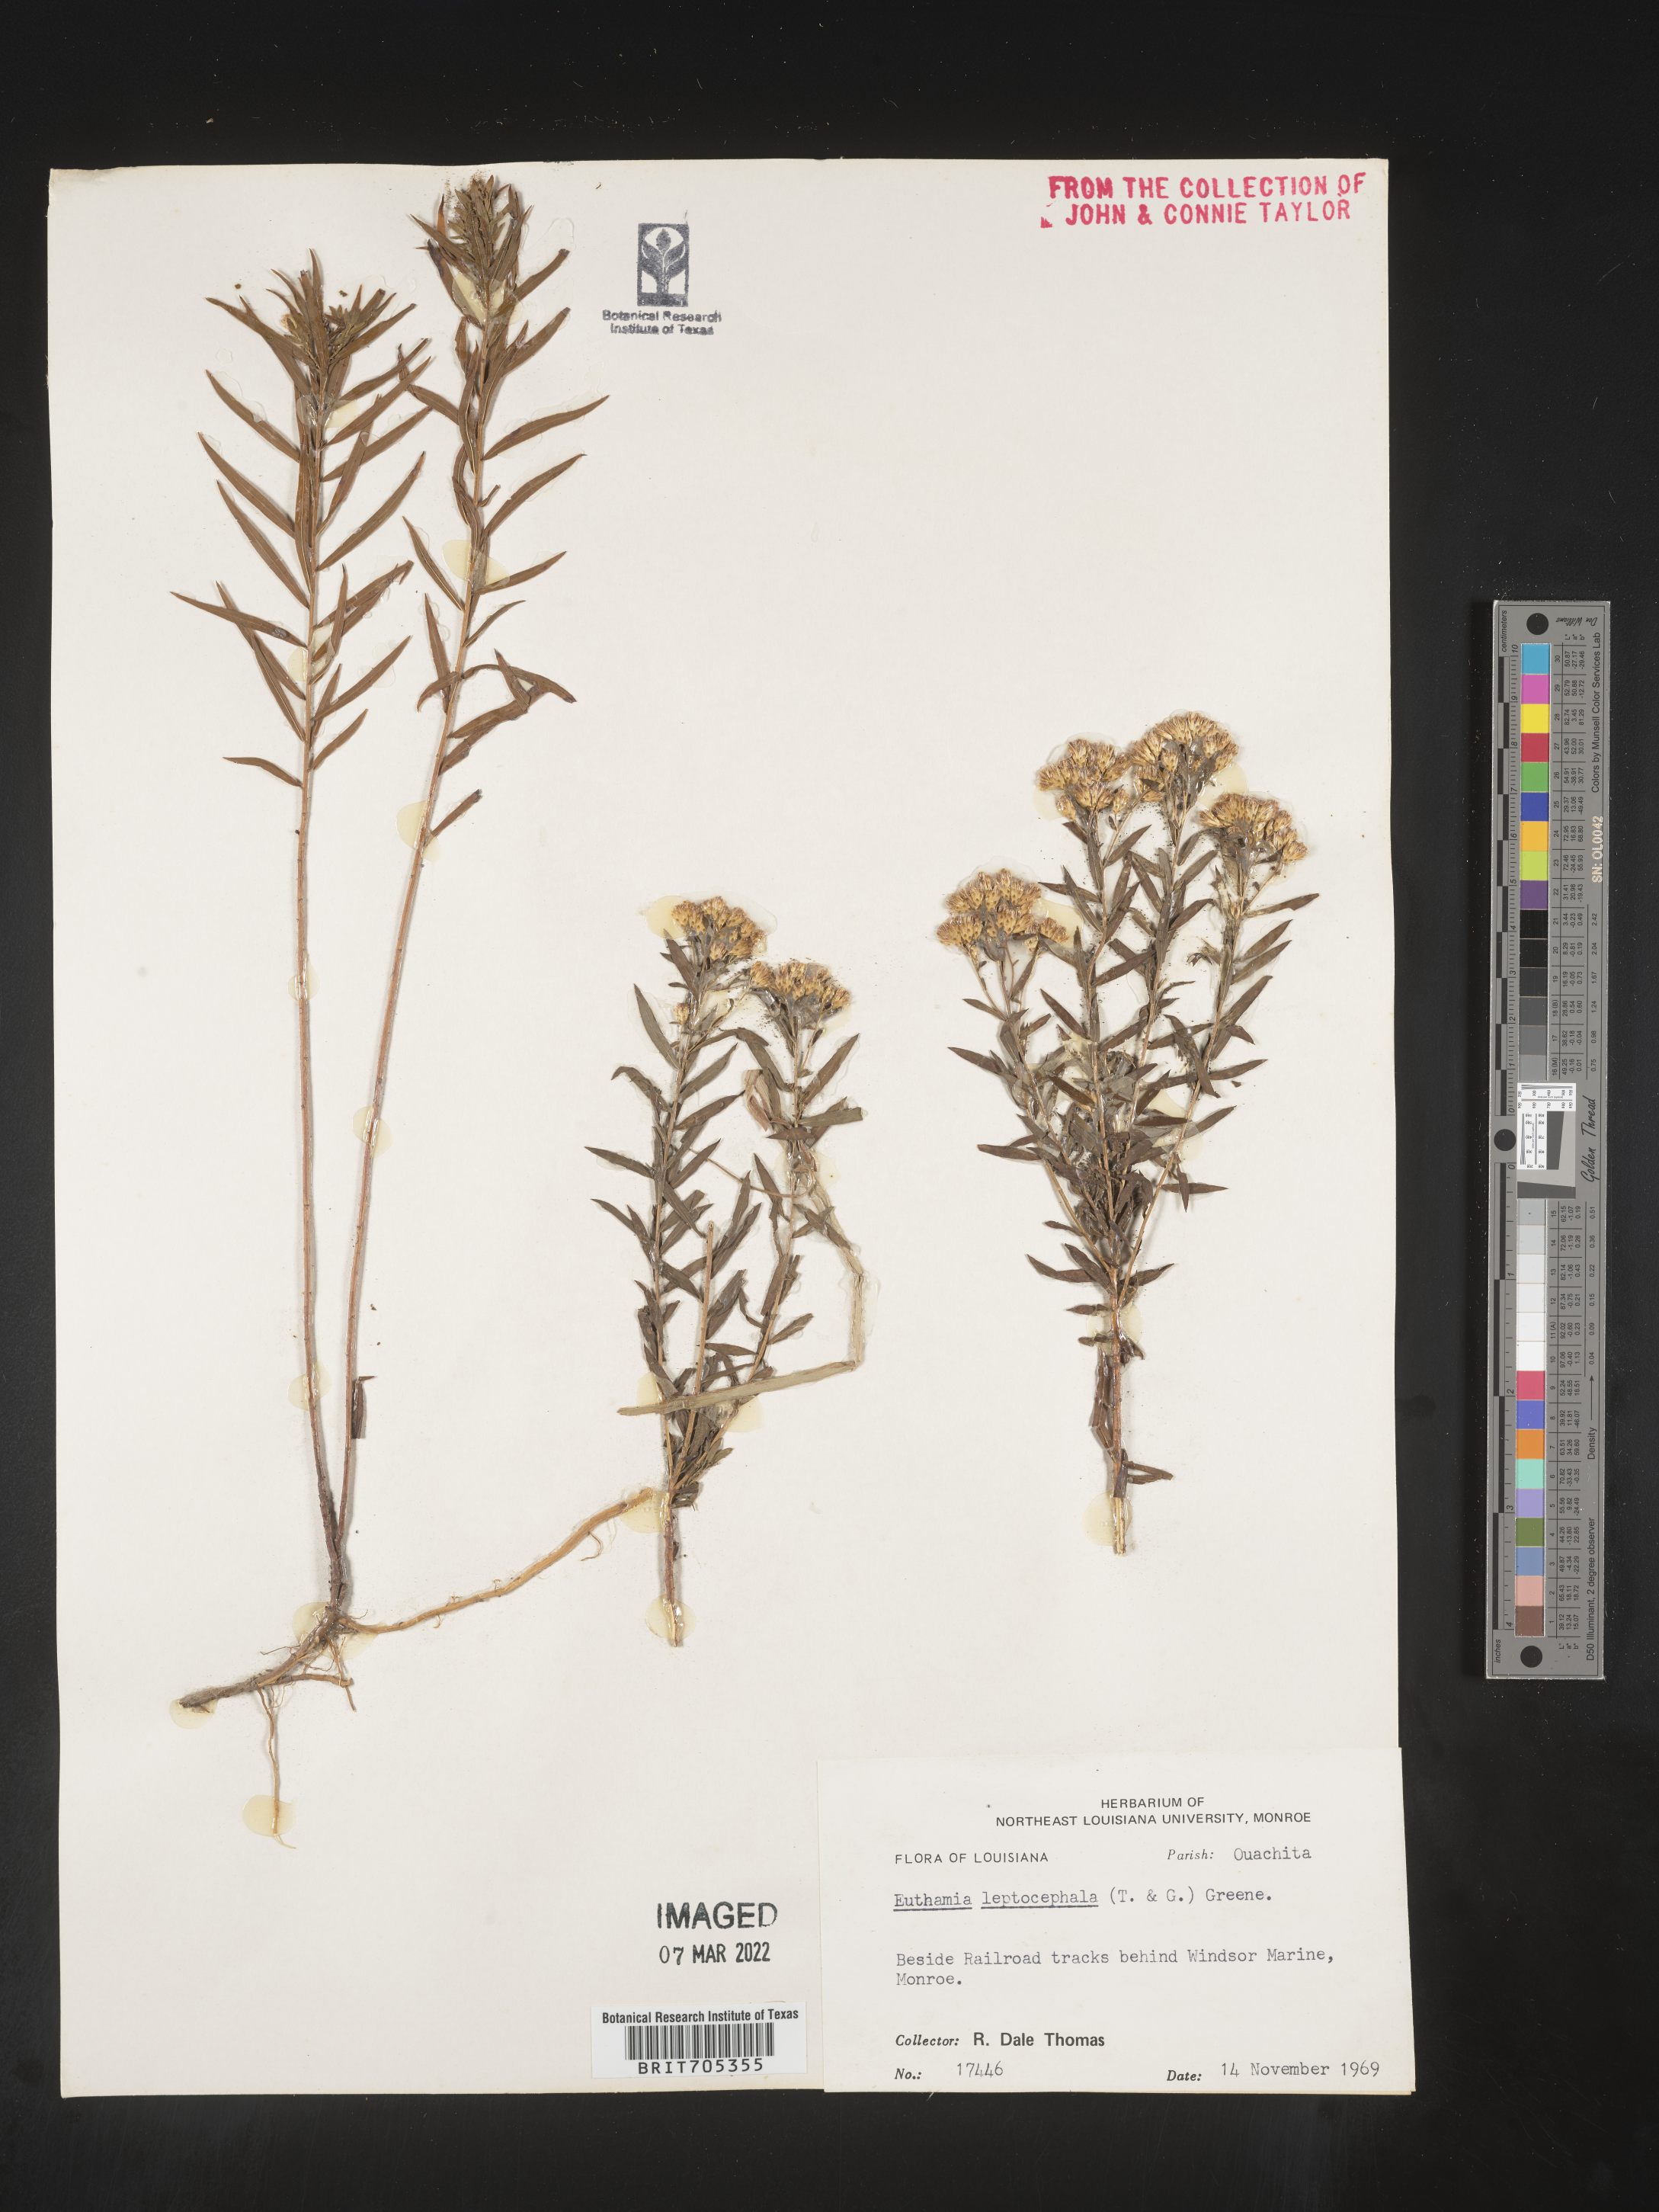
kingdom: Plantae
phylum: Tracheophyta
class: Magnoliopsida
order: Asterales
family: Asteraceae
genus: Euthamia
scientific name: Euthamia leptocephala
